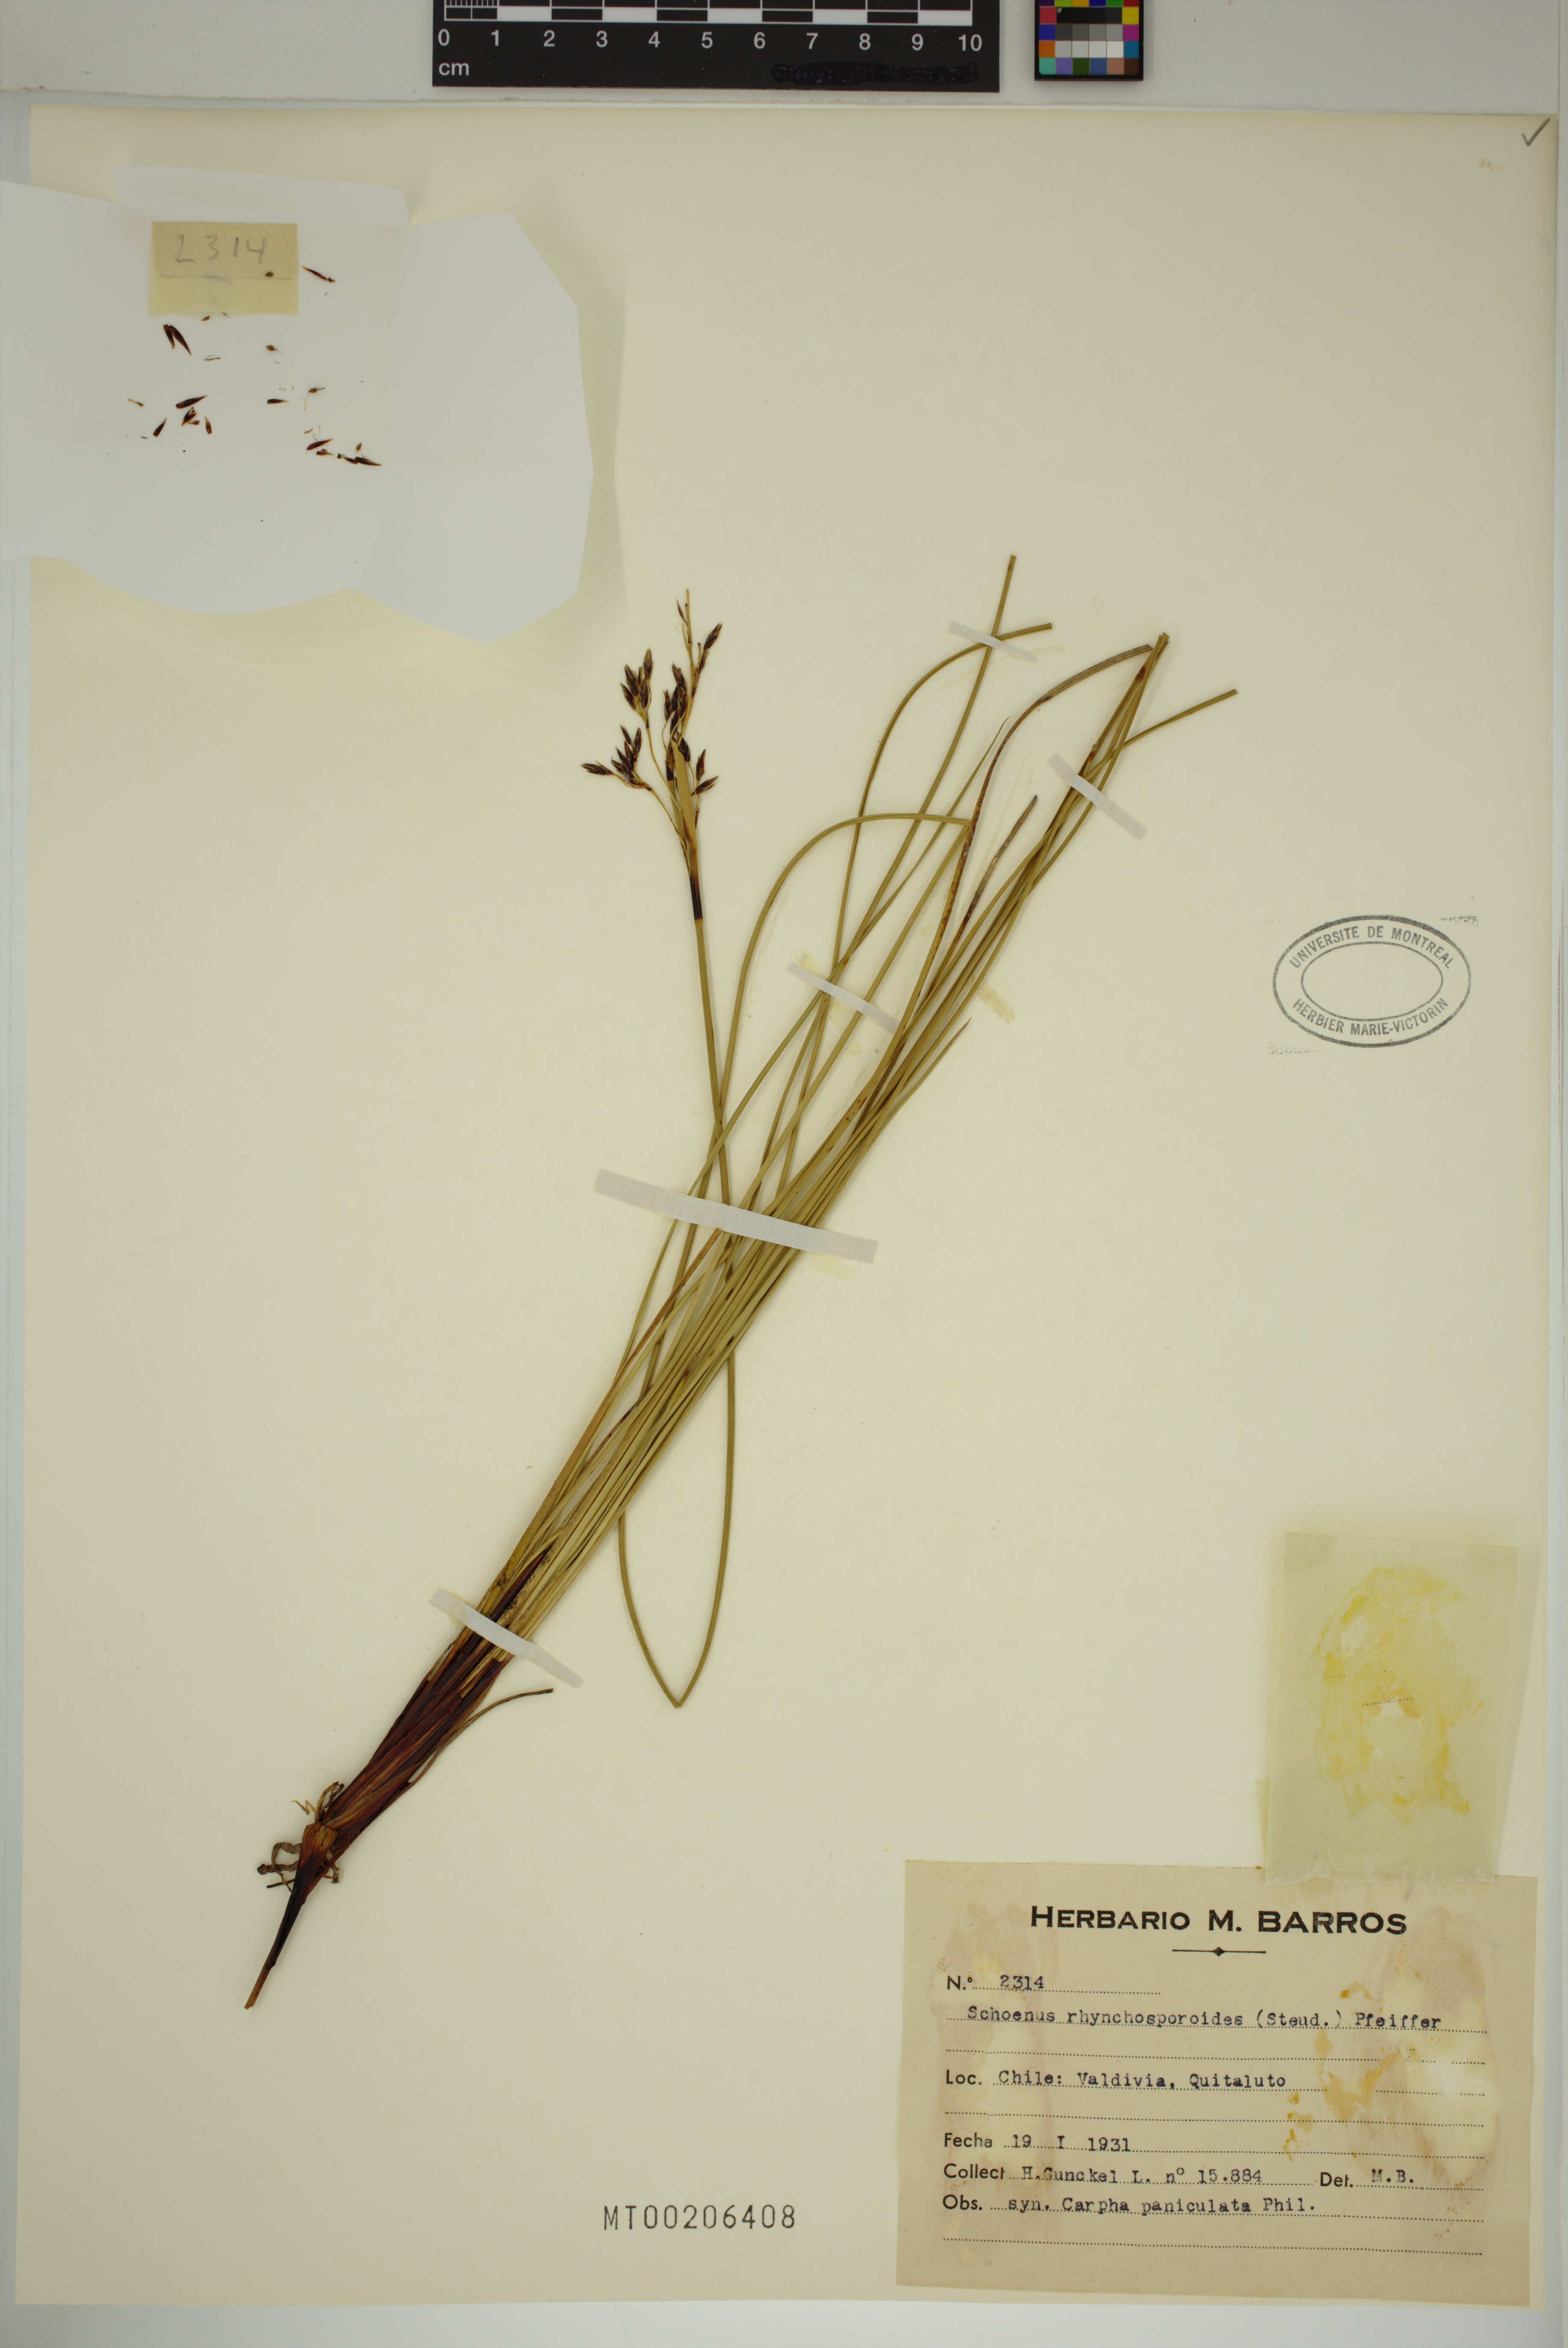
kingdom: Plantae
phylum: Tracheophyta
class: Liliopsida
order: Poales
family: Cyperaceae
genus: Schoenus
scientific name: Schoenus rhynchosporoides
